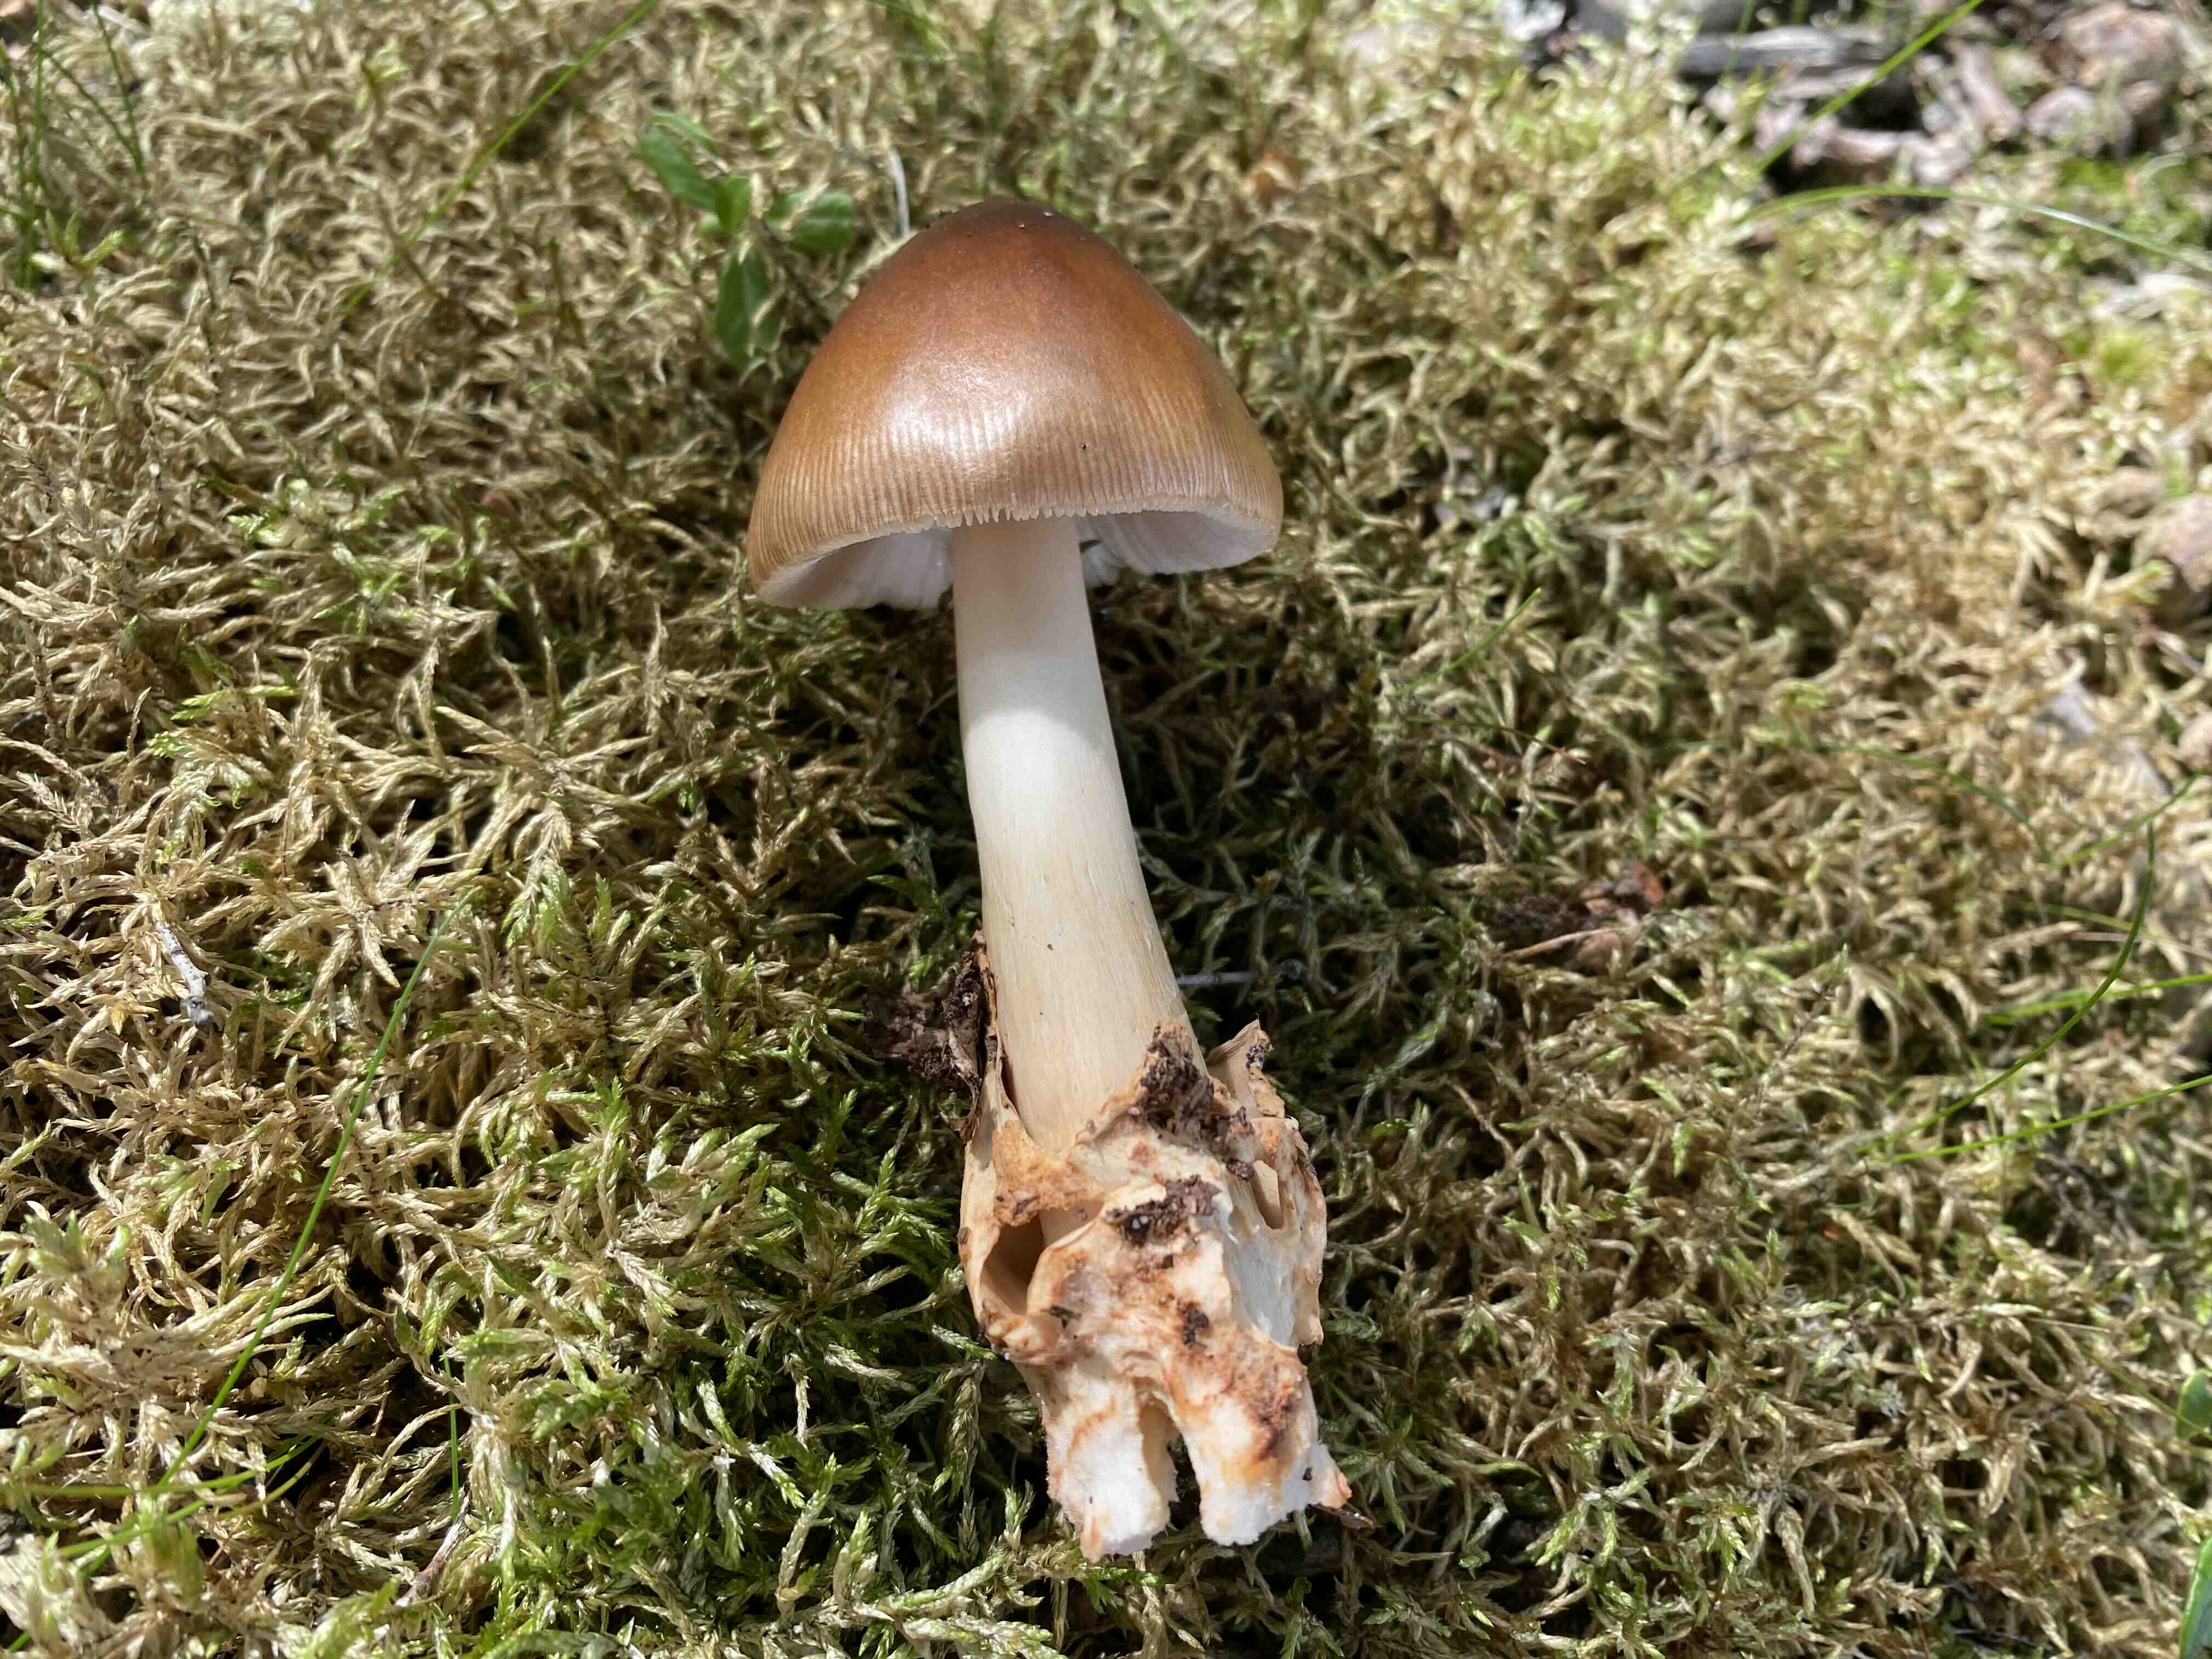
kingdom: Fungi
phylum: Basidiomycota
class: Agaricomycetes
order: Agaricales
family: Amanitaceae
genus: Amanita
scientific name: Amanita fulva
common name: brun kam-fluesvamp
